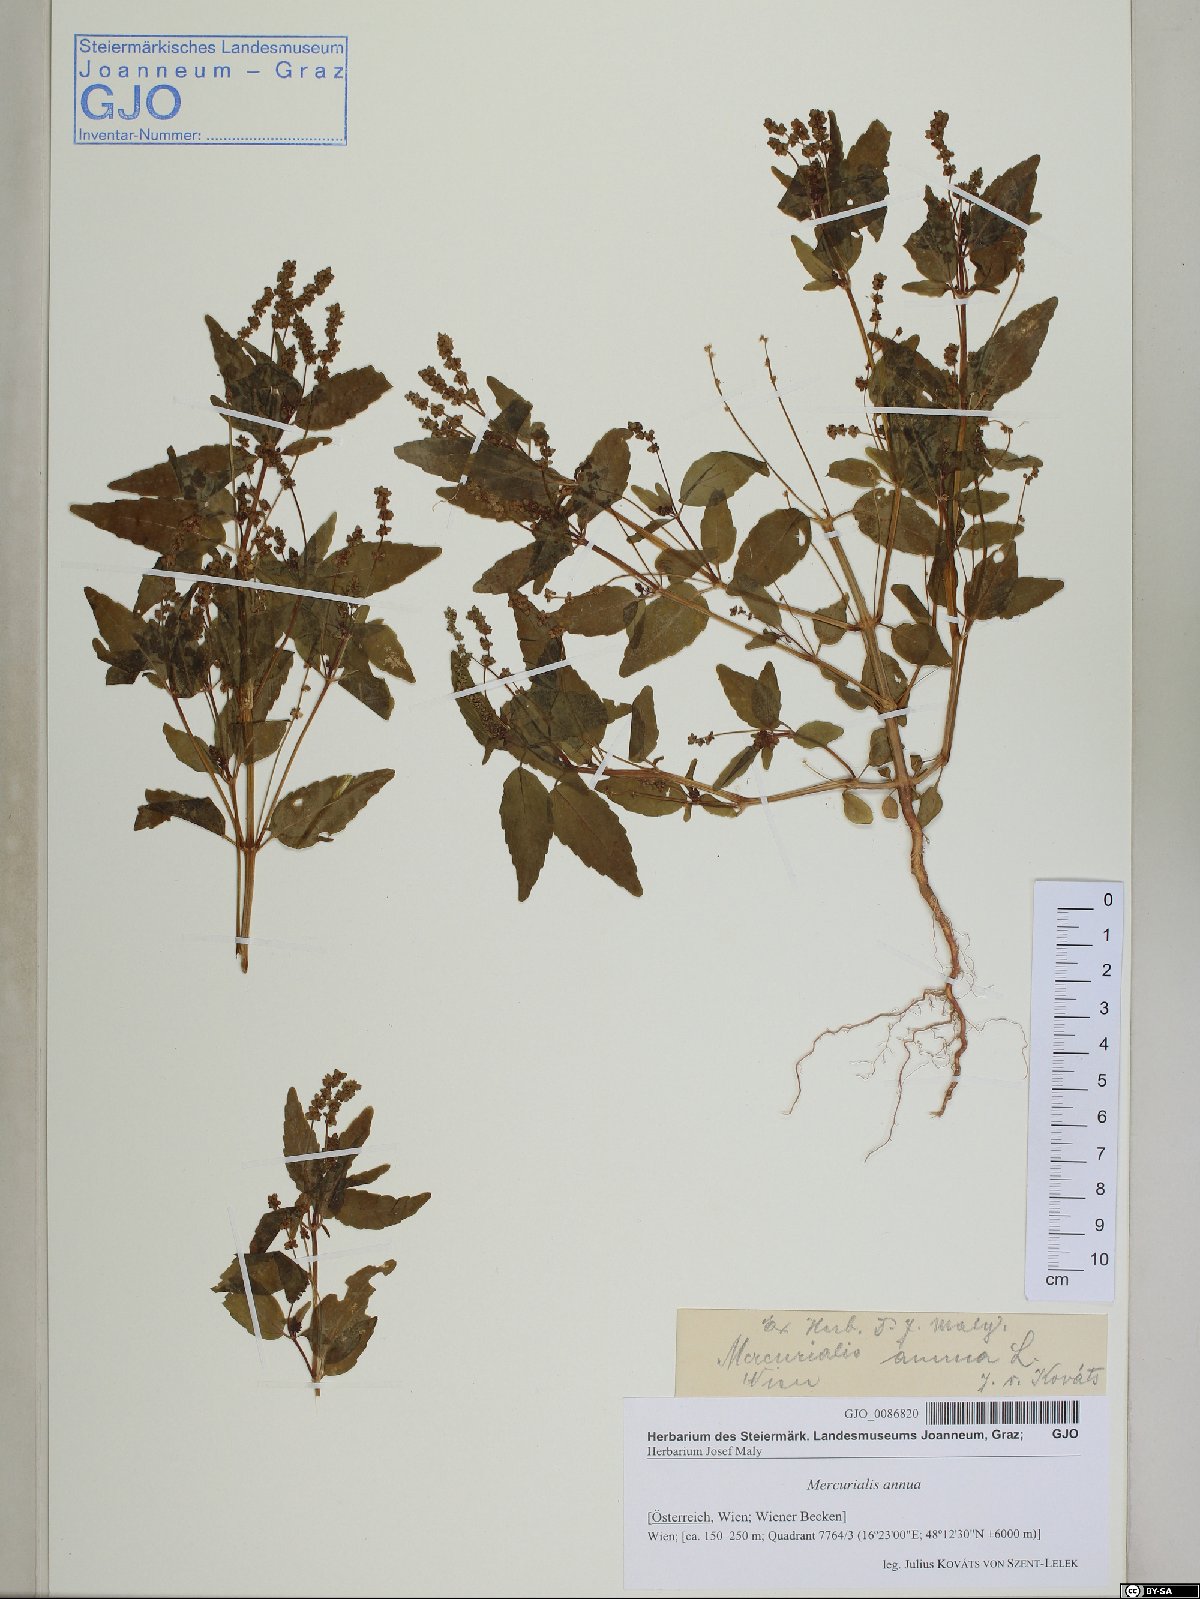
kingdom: Plantae
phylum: Tracheophyta
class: Magnoliopsida
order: Malpighiales
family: Euphorbiaceae
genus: Mercurialis
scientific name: Mercurialis annua
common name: Annual mercury
